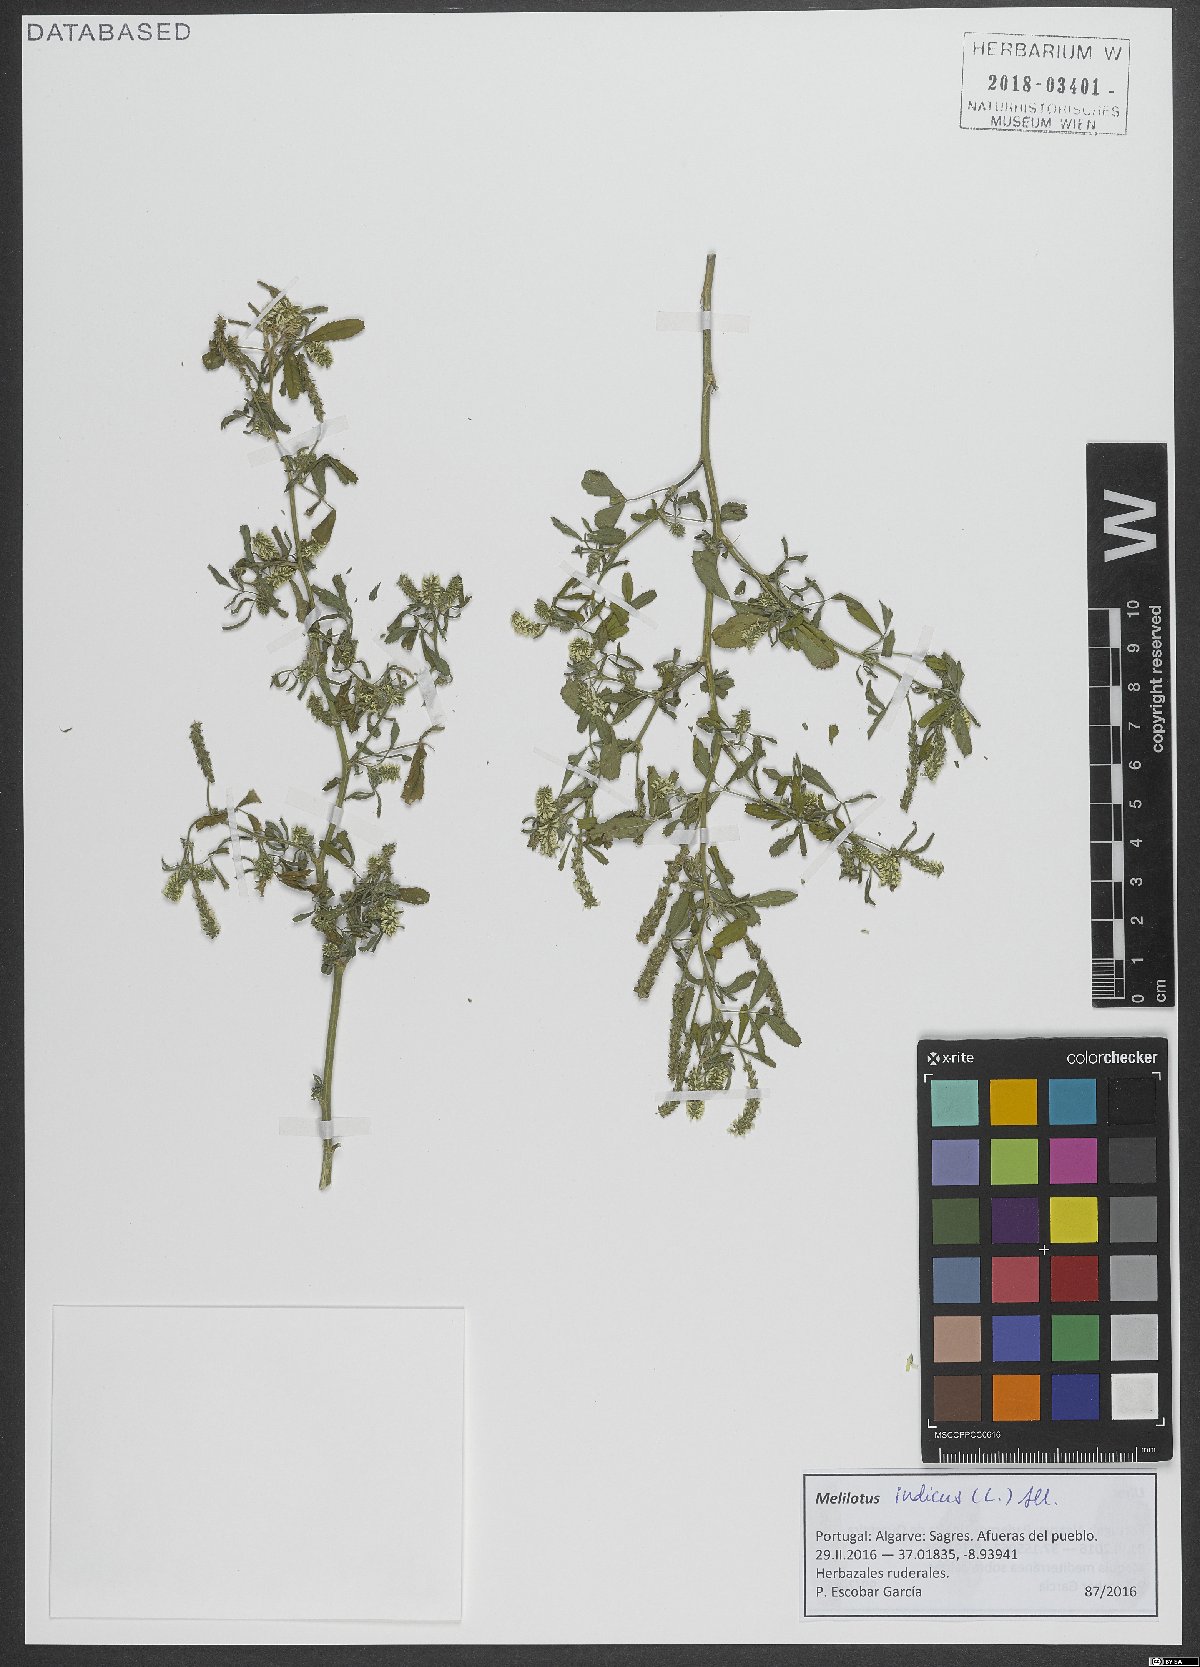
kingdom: Plantae
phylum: Tracheophyta
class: Magnoliopsida
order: Fabales
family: Fabaceae
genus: Melilotus
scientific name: Melilotus indicus
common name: Small melilot
